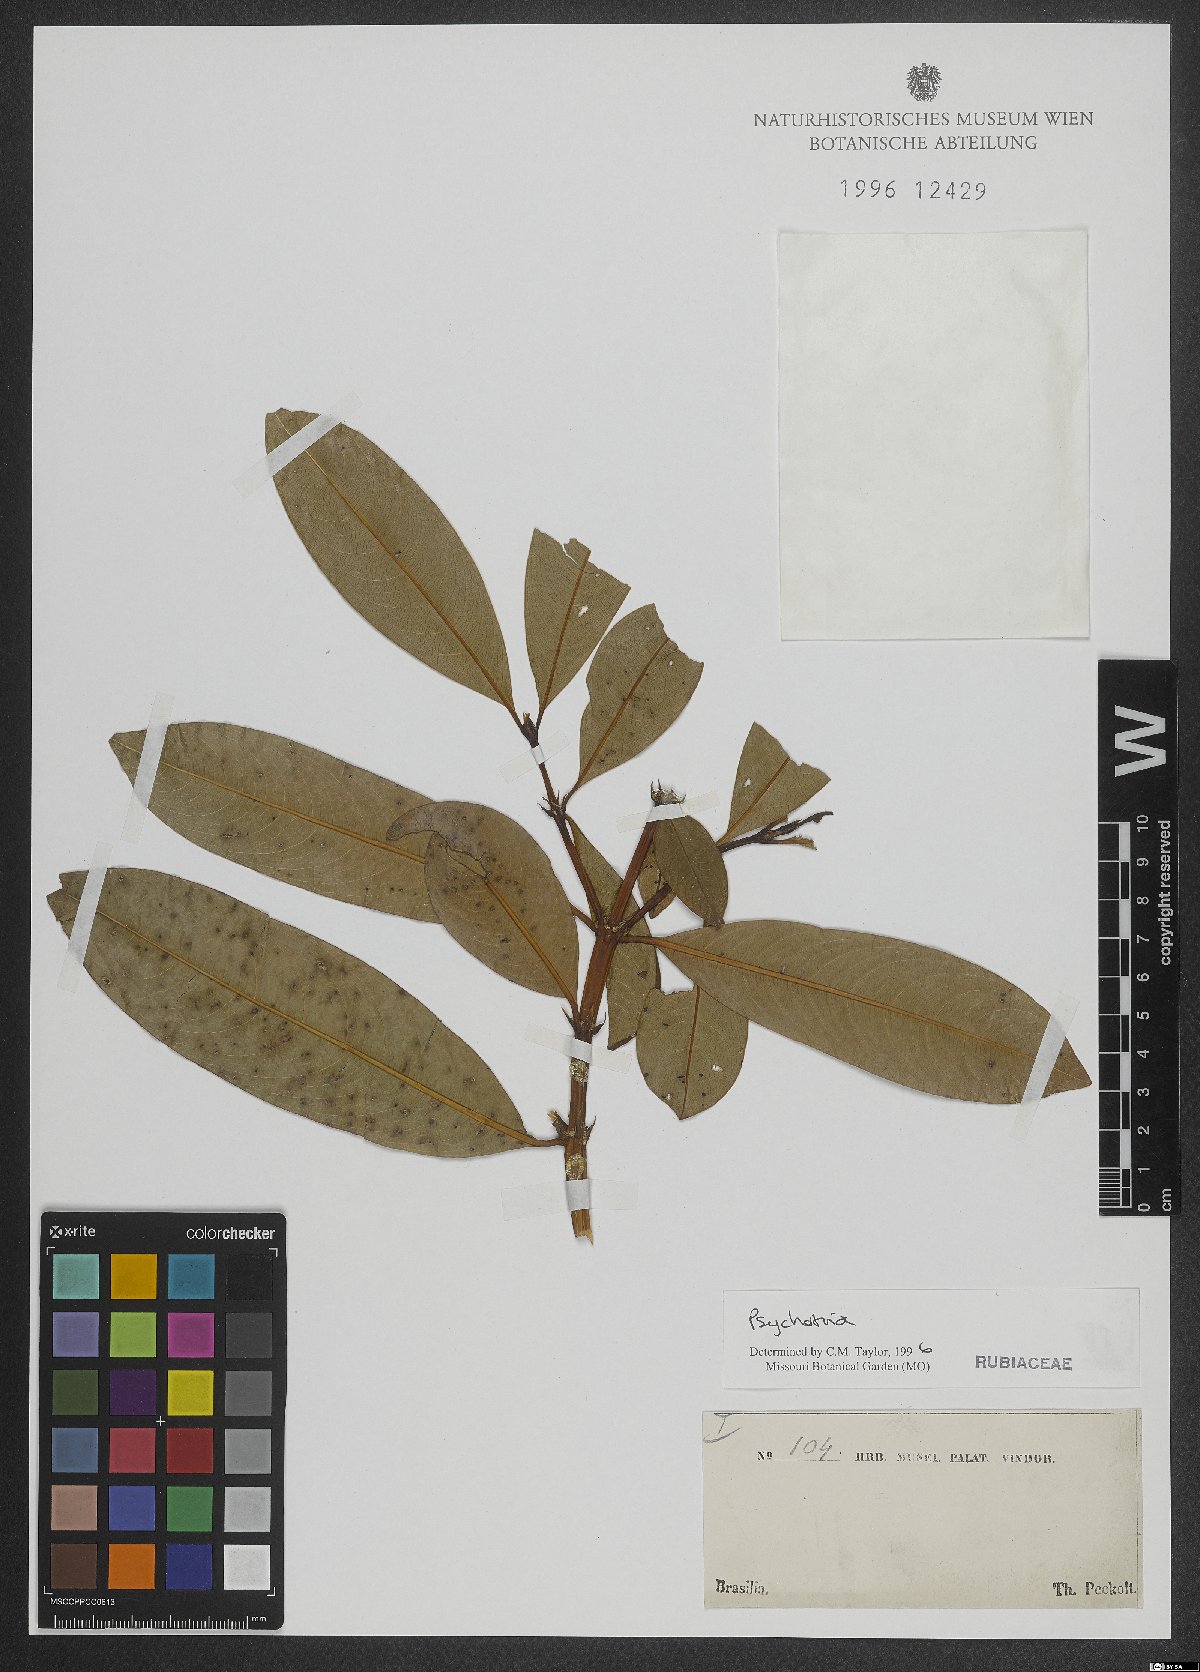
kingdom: Plantae
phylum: Tracheophyta
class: Magnoliopsida
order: Gentianales
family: Rubiaceae
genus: Psychotria
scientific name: Psychotria
